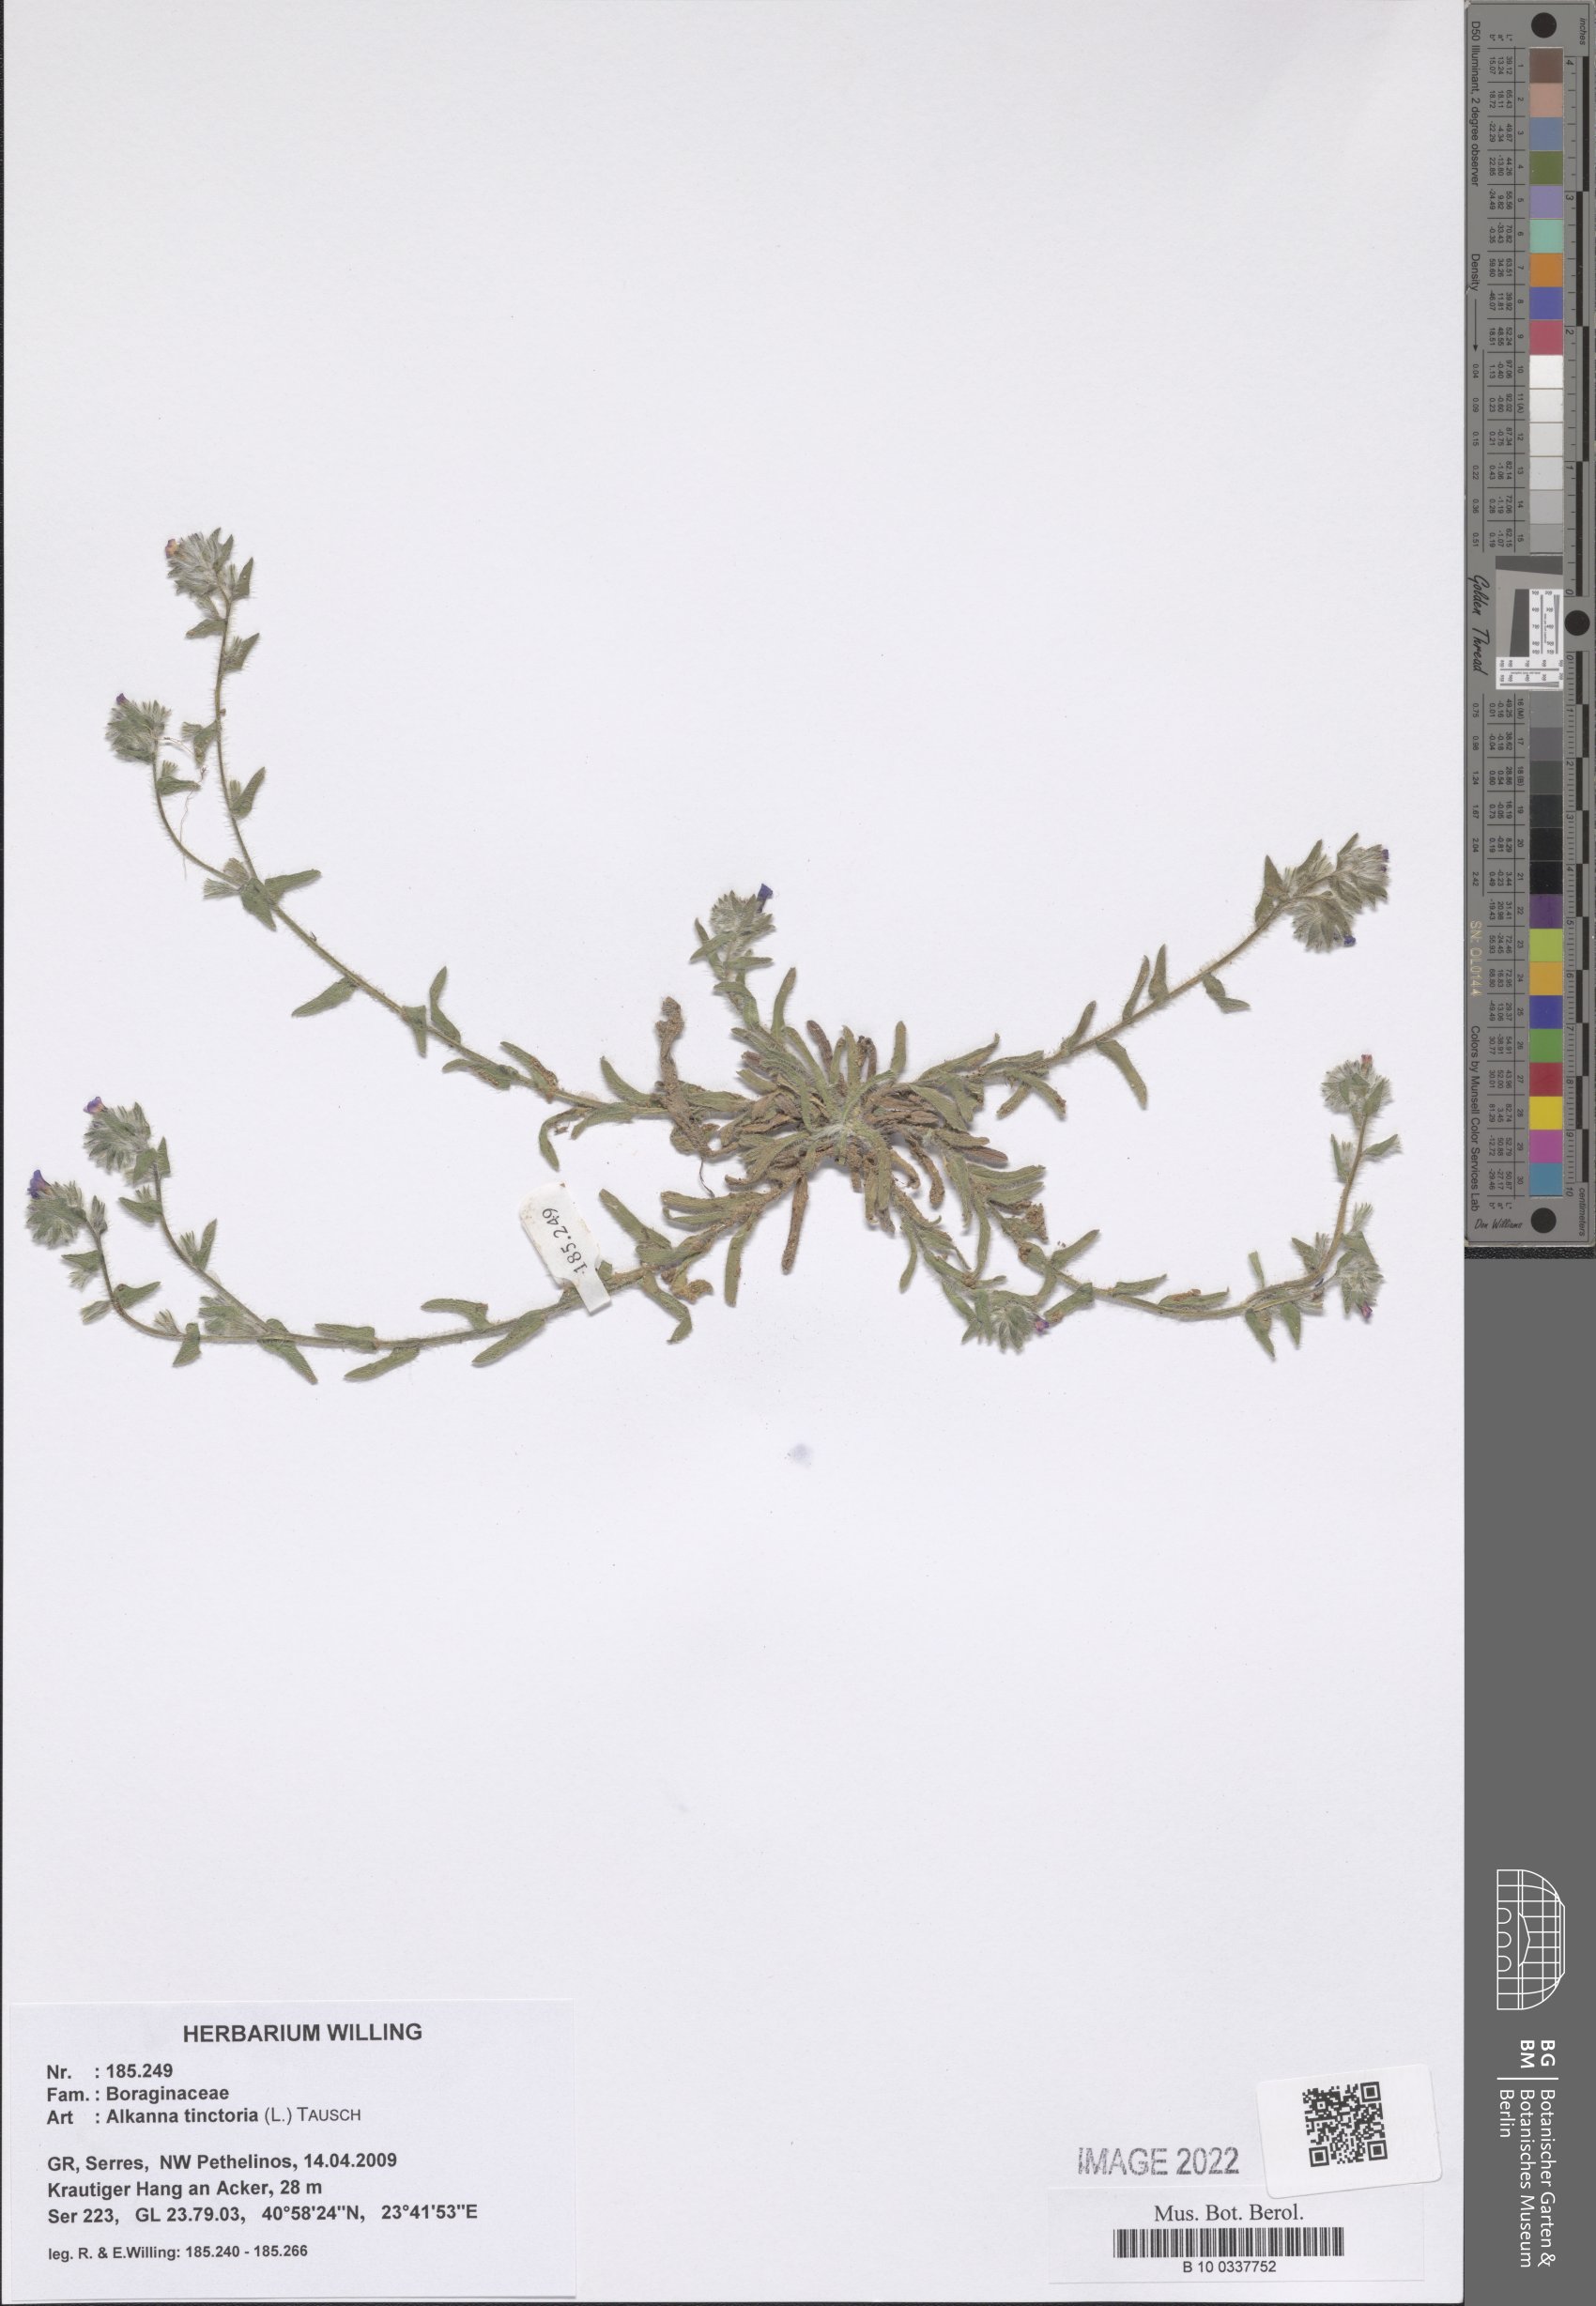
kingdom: Plantae
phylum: Tracheophyta
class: Magnoliopsida
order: Boraginales
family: Boraginaceae
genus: Alkanna
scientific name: Alkanna tinctoria
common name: Dyer's-alkanet
